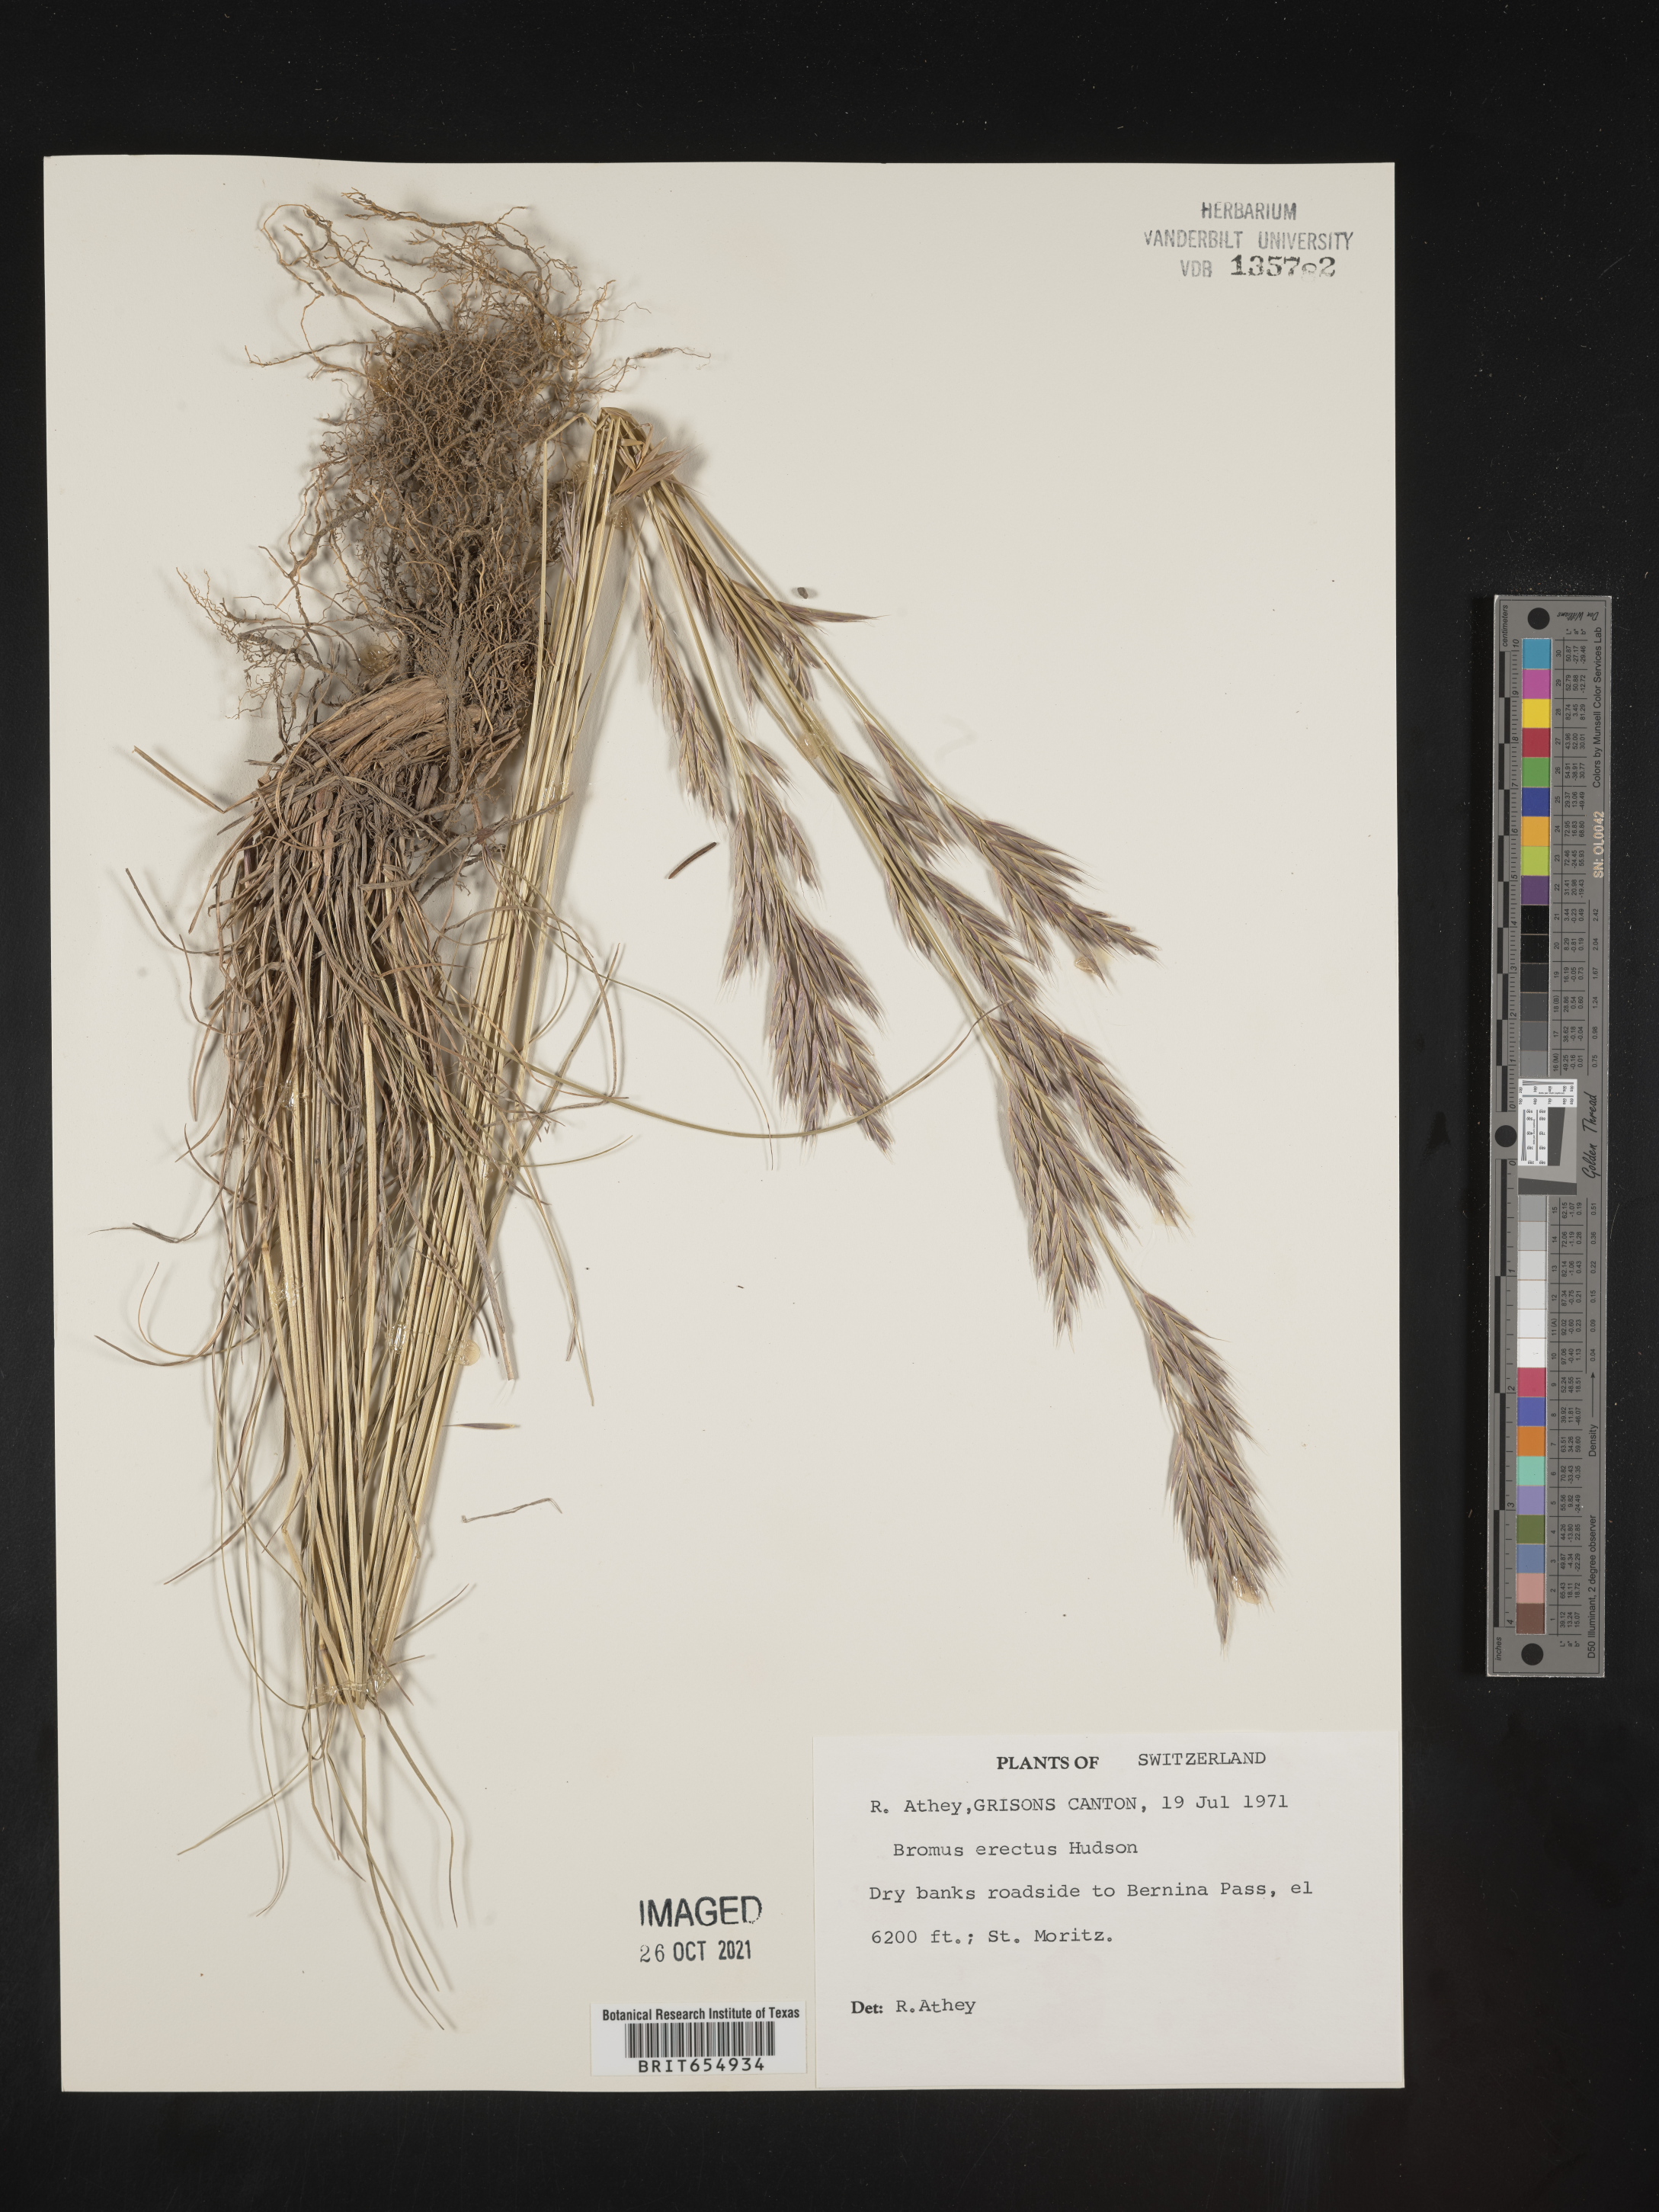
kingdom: Plantae
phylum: Tracheophyta
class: Liliopsida
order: Poales
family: Poaceae
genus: Bromus
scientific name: Bromus
